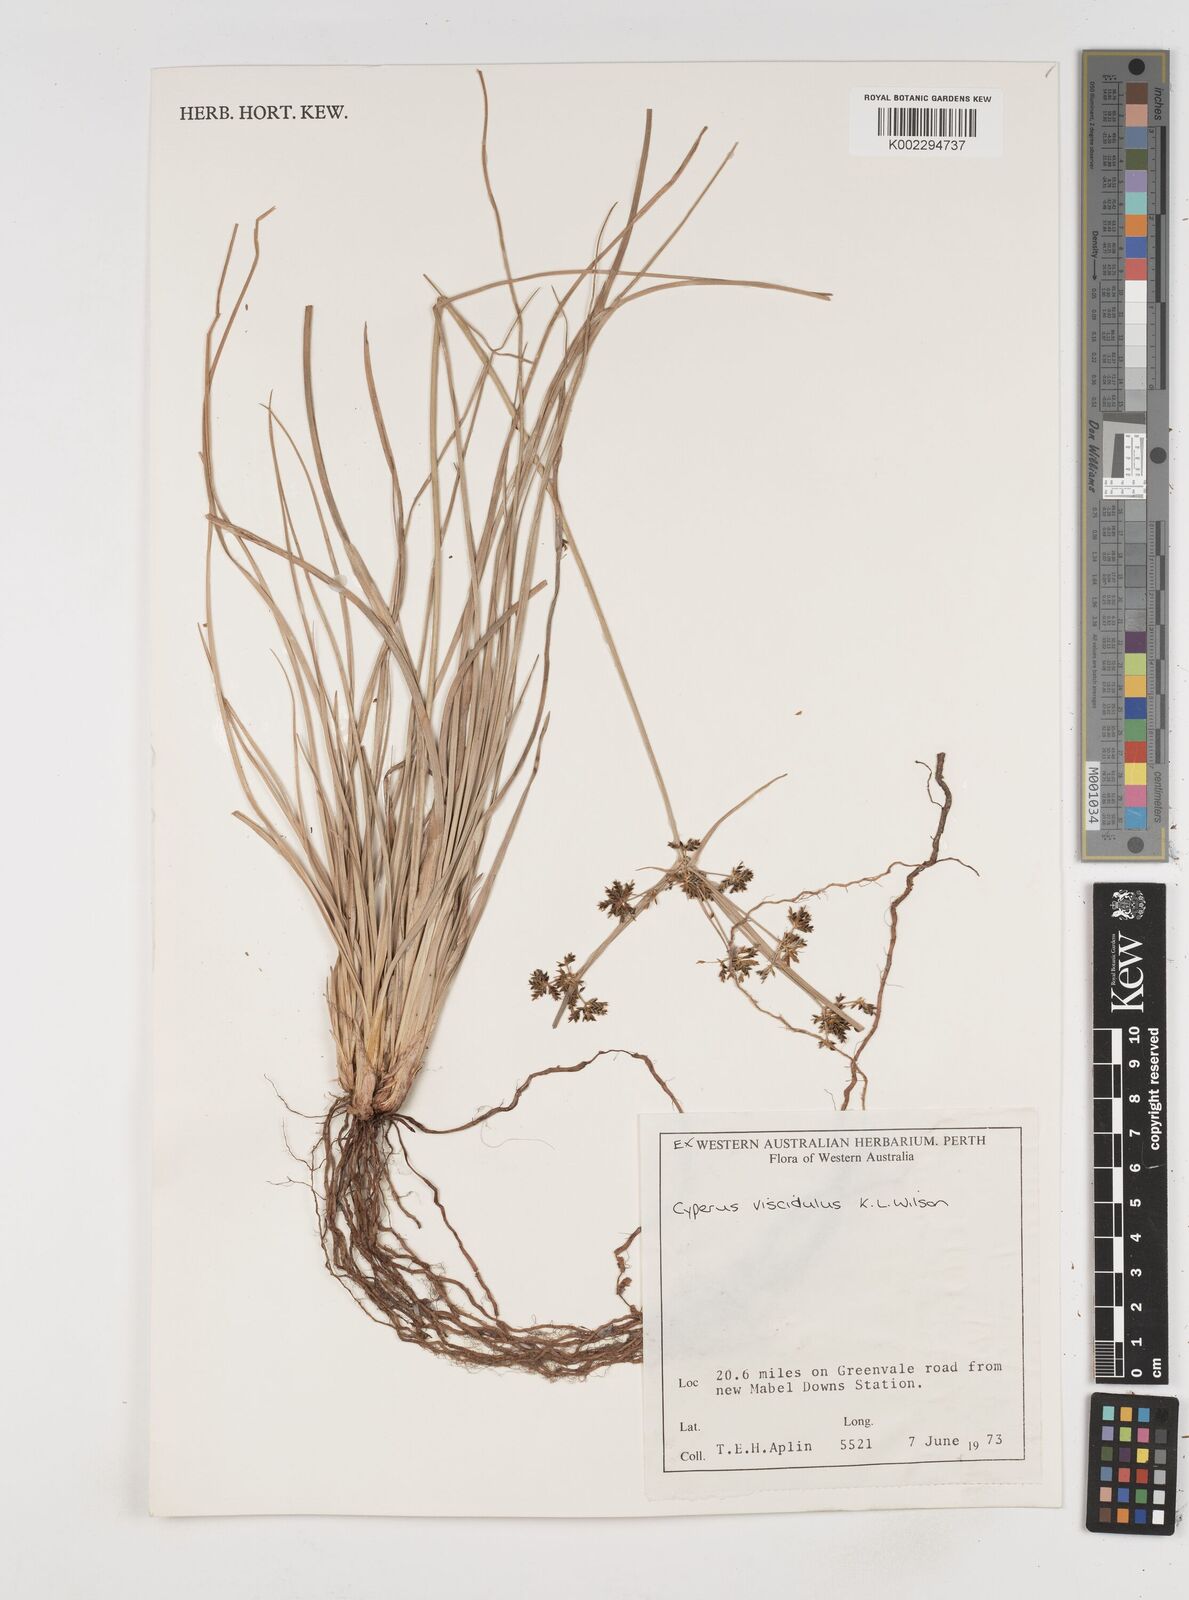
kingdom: Plantae
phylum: Tracheophyta
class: Liliopsida
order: Poales
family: Cyperaceae
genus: Cyperus
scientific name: Cyperus viscidulus
